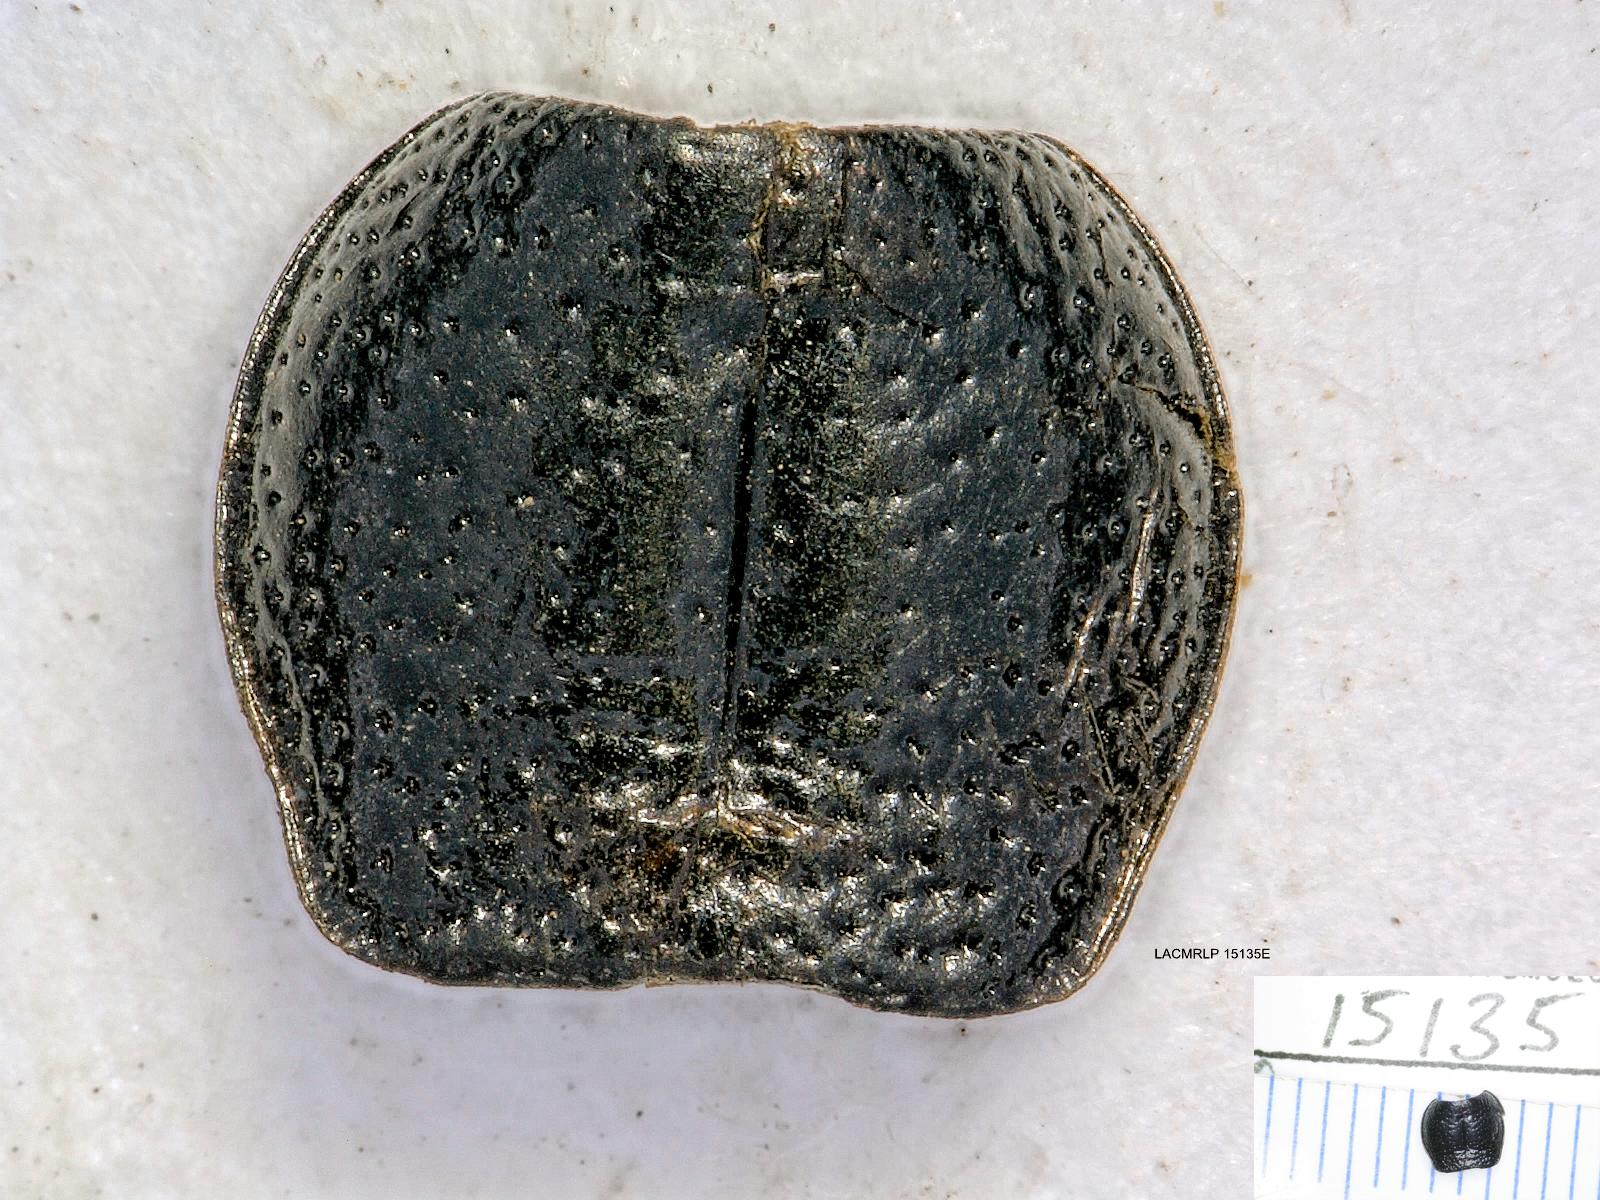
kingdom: Animalia
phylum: Arthropoda
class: Insecta
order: Coleoptera
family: Carabidae
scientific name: Carabidae
